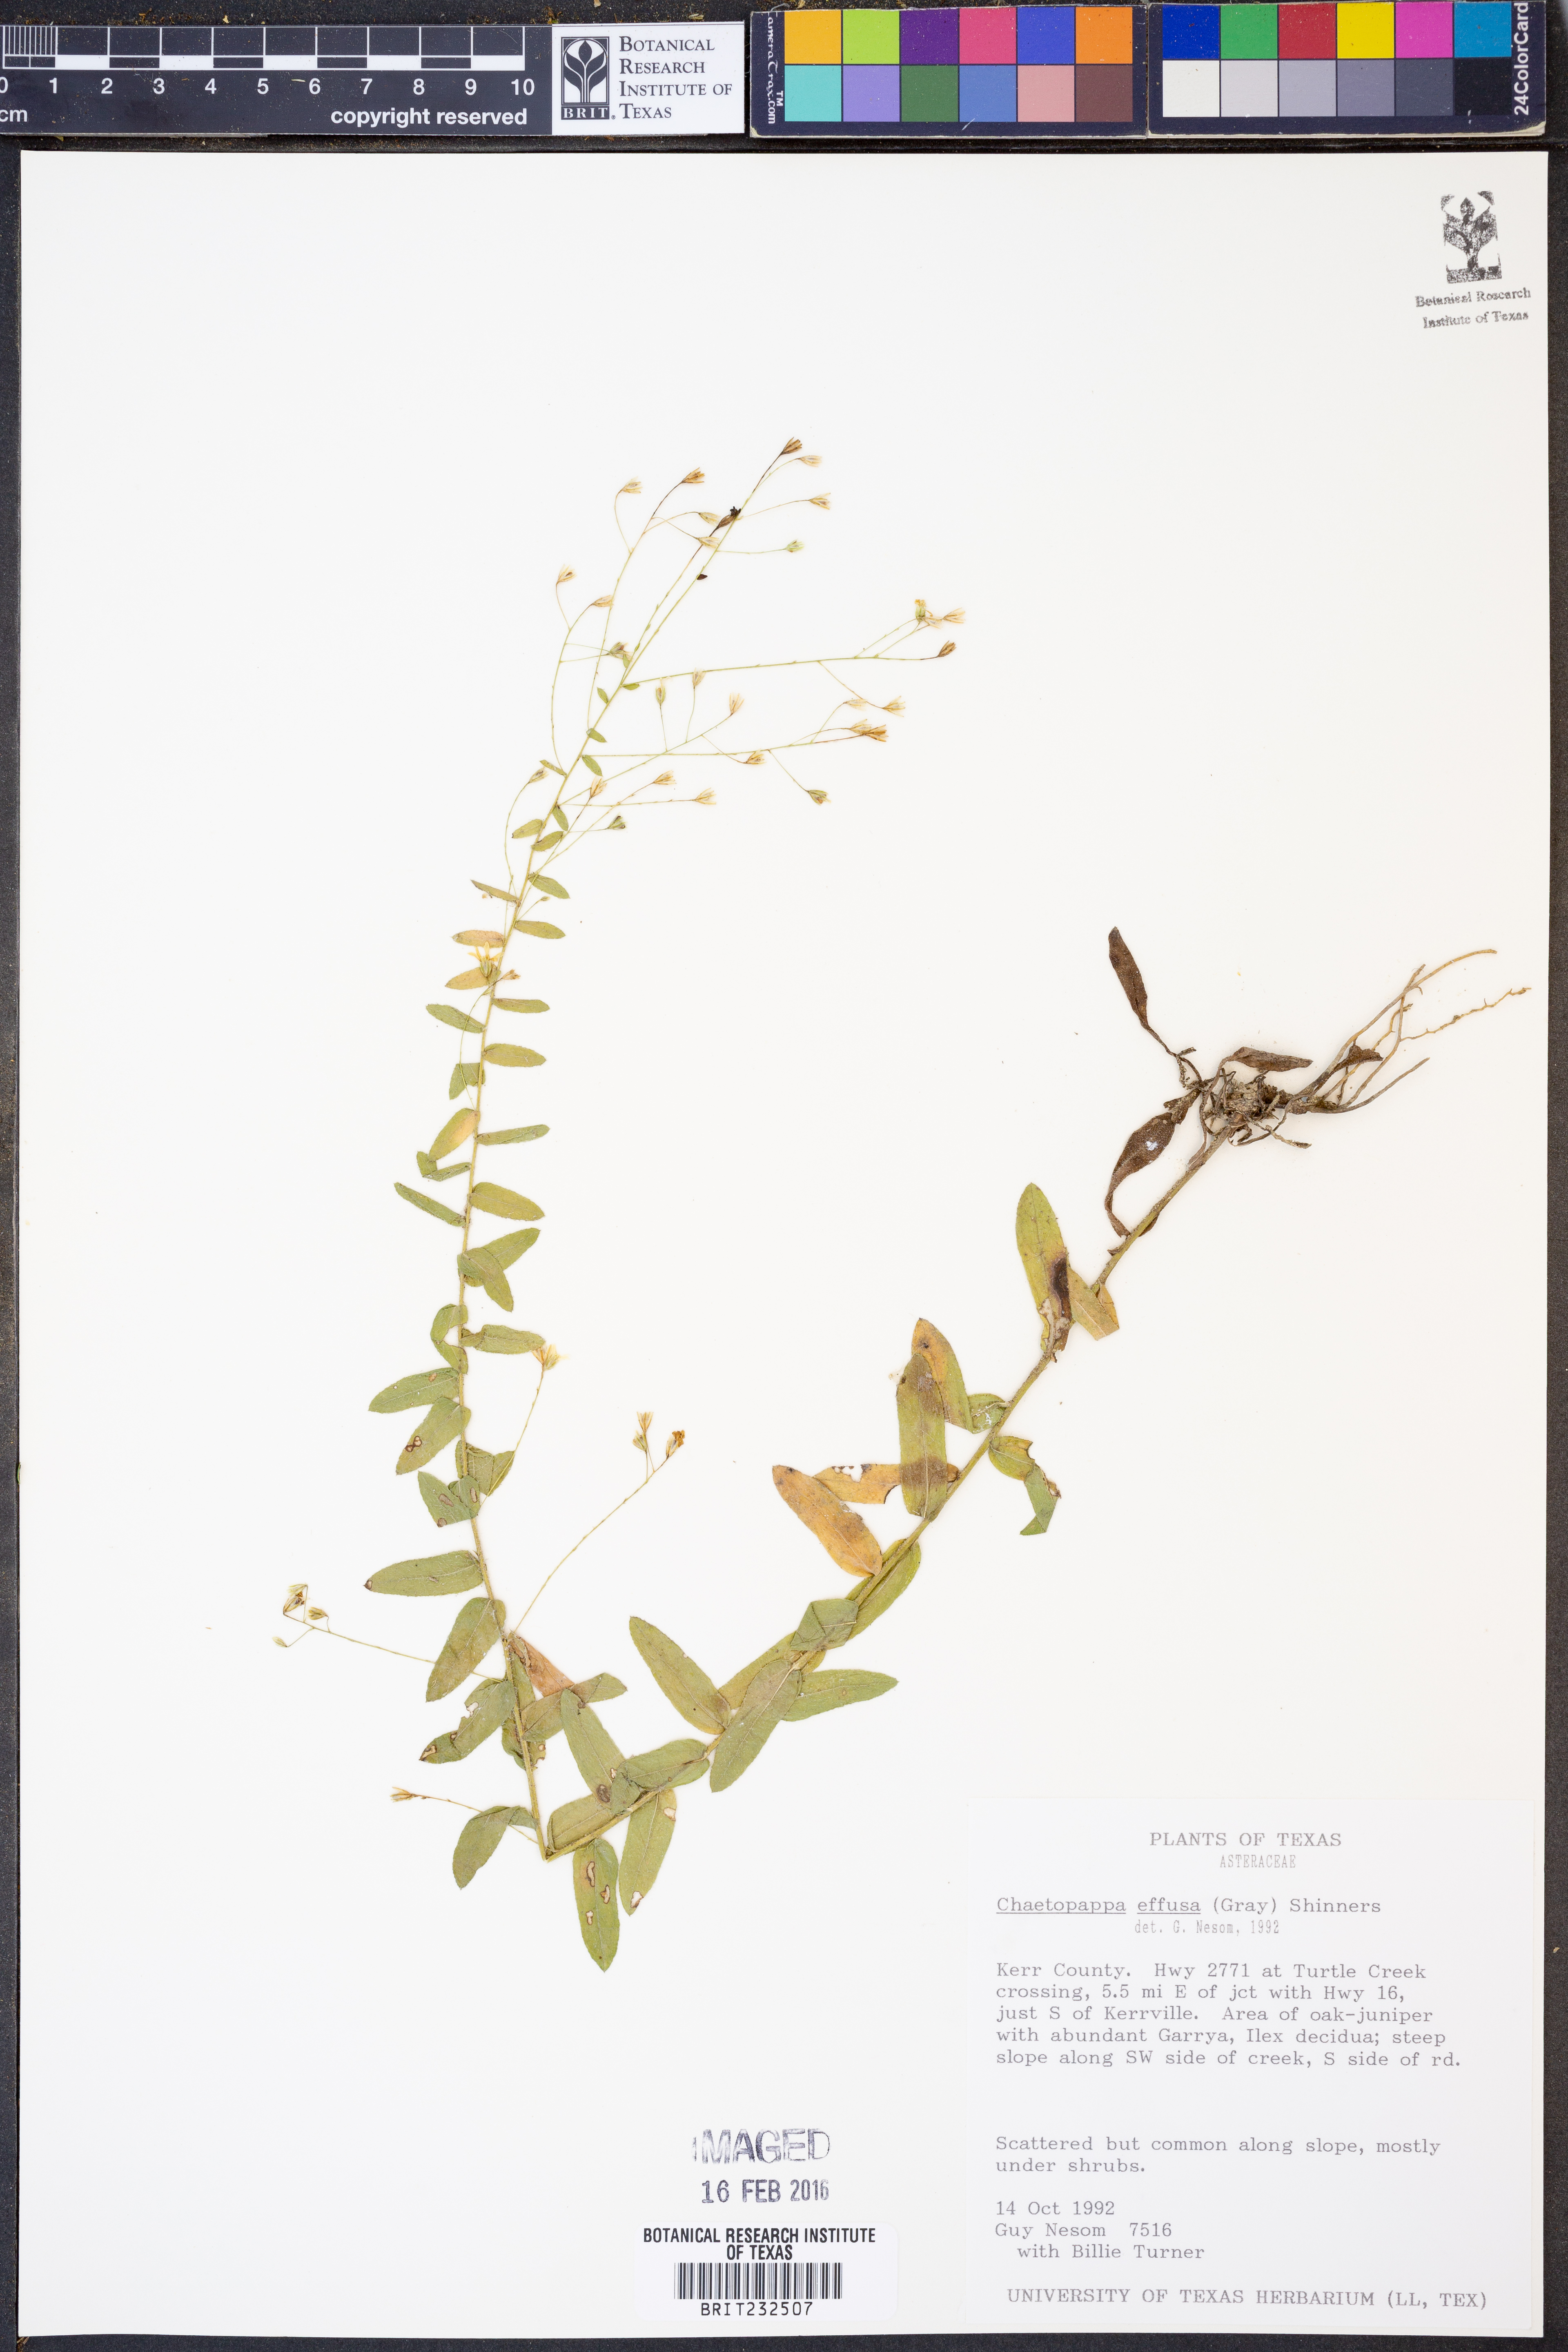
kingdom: Plantae
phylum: Tracheophyta
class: Magnoliopsida
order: Asterales
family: Asteraceae
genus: Chaetopappa
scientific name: Chaetopappa effusa
